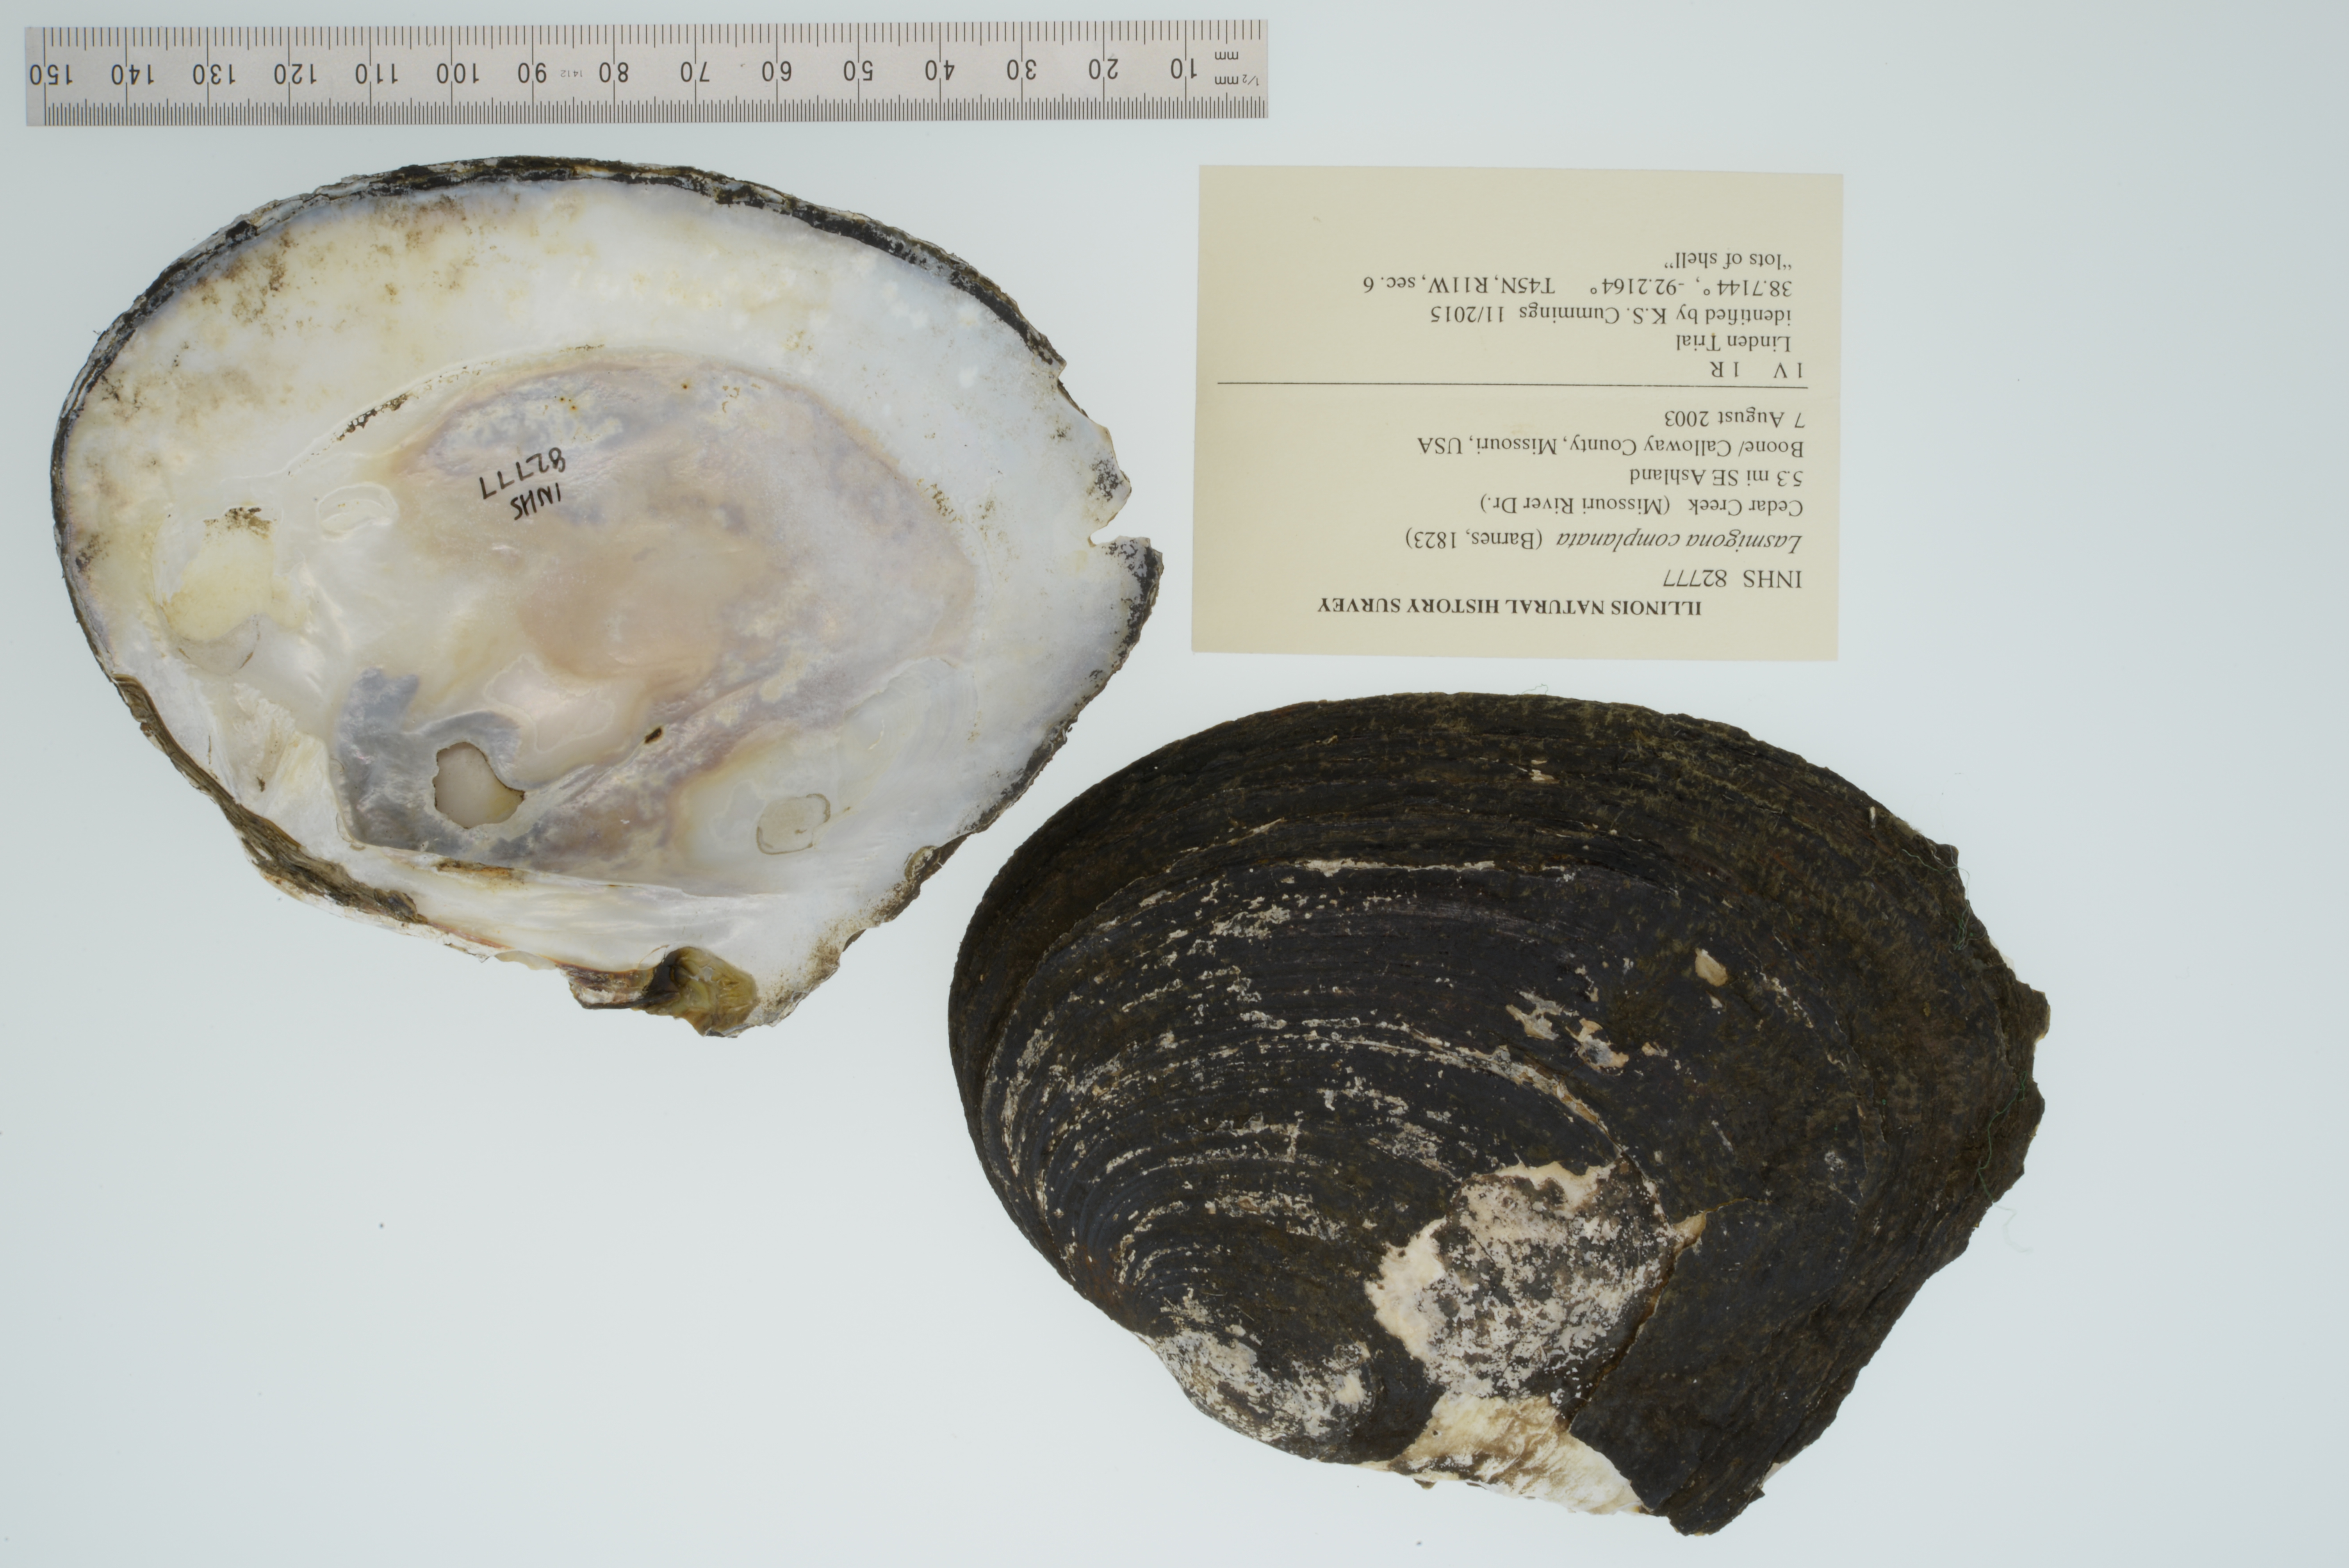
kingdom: Animalia
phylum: Mollusca
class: Bivalvia
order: Unionida
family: Unionidae
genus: Lasmigona
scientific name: Lasmigona complanata
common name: White heelsplitter
